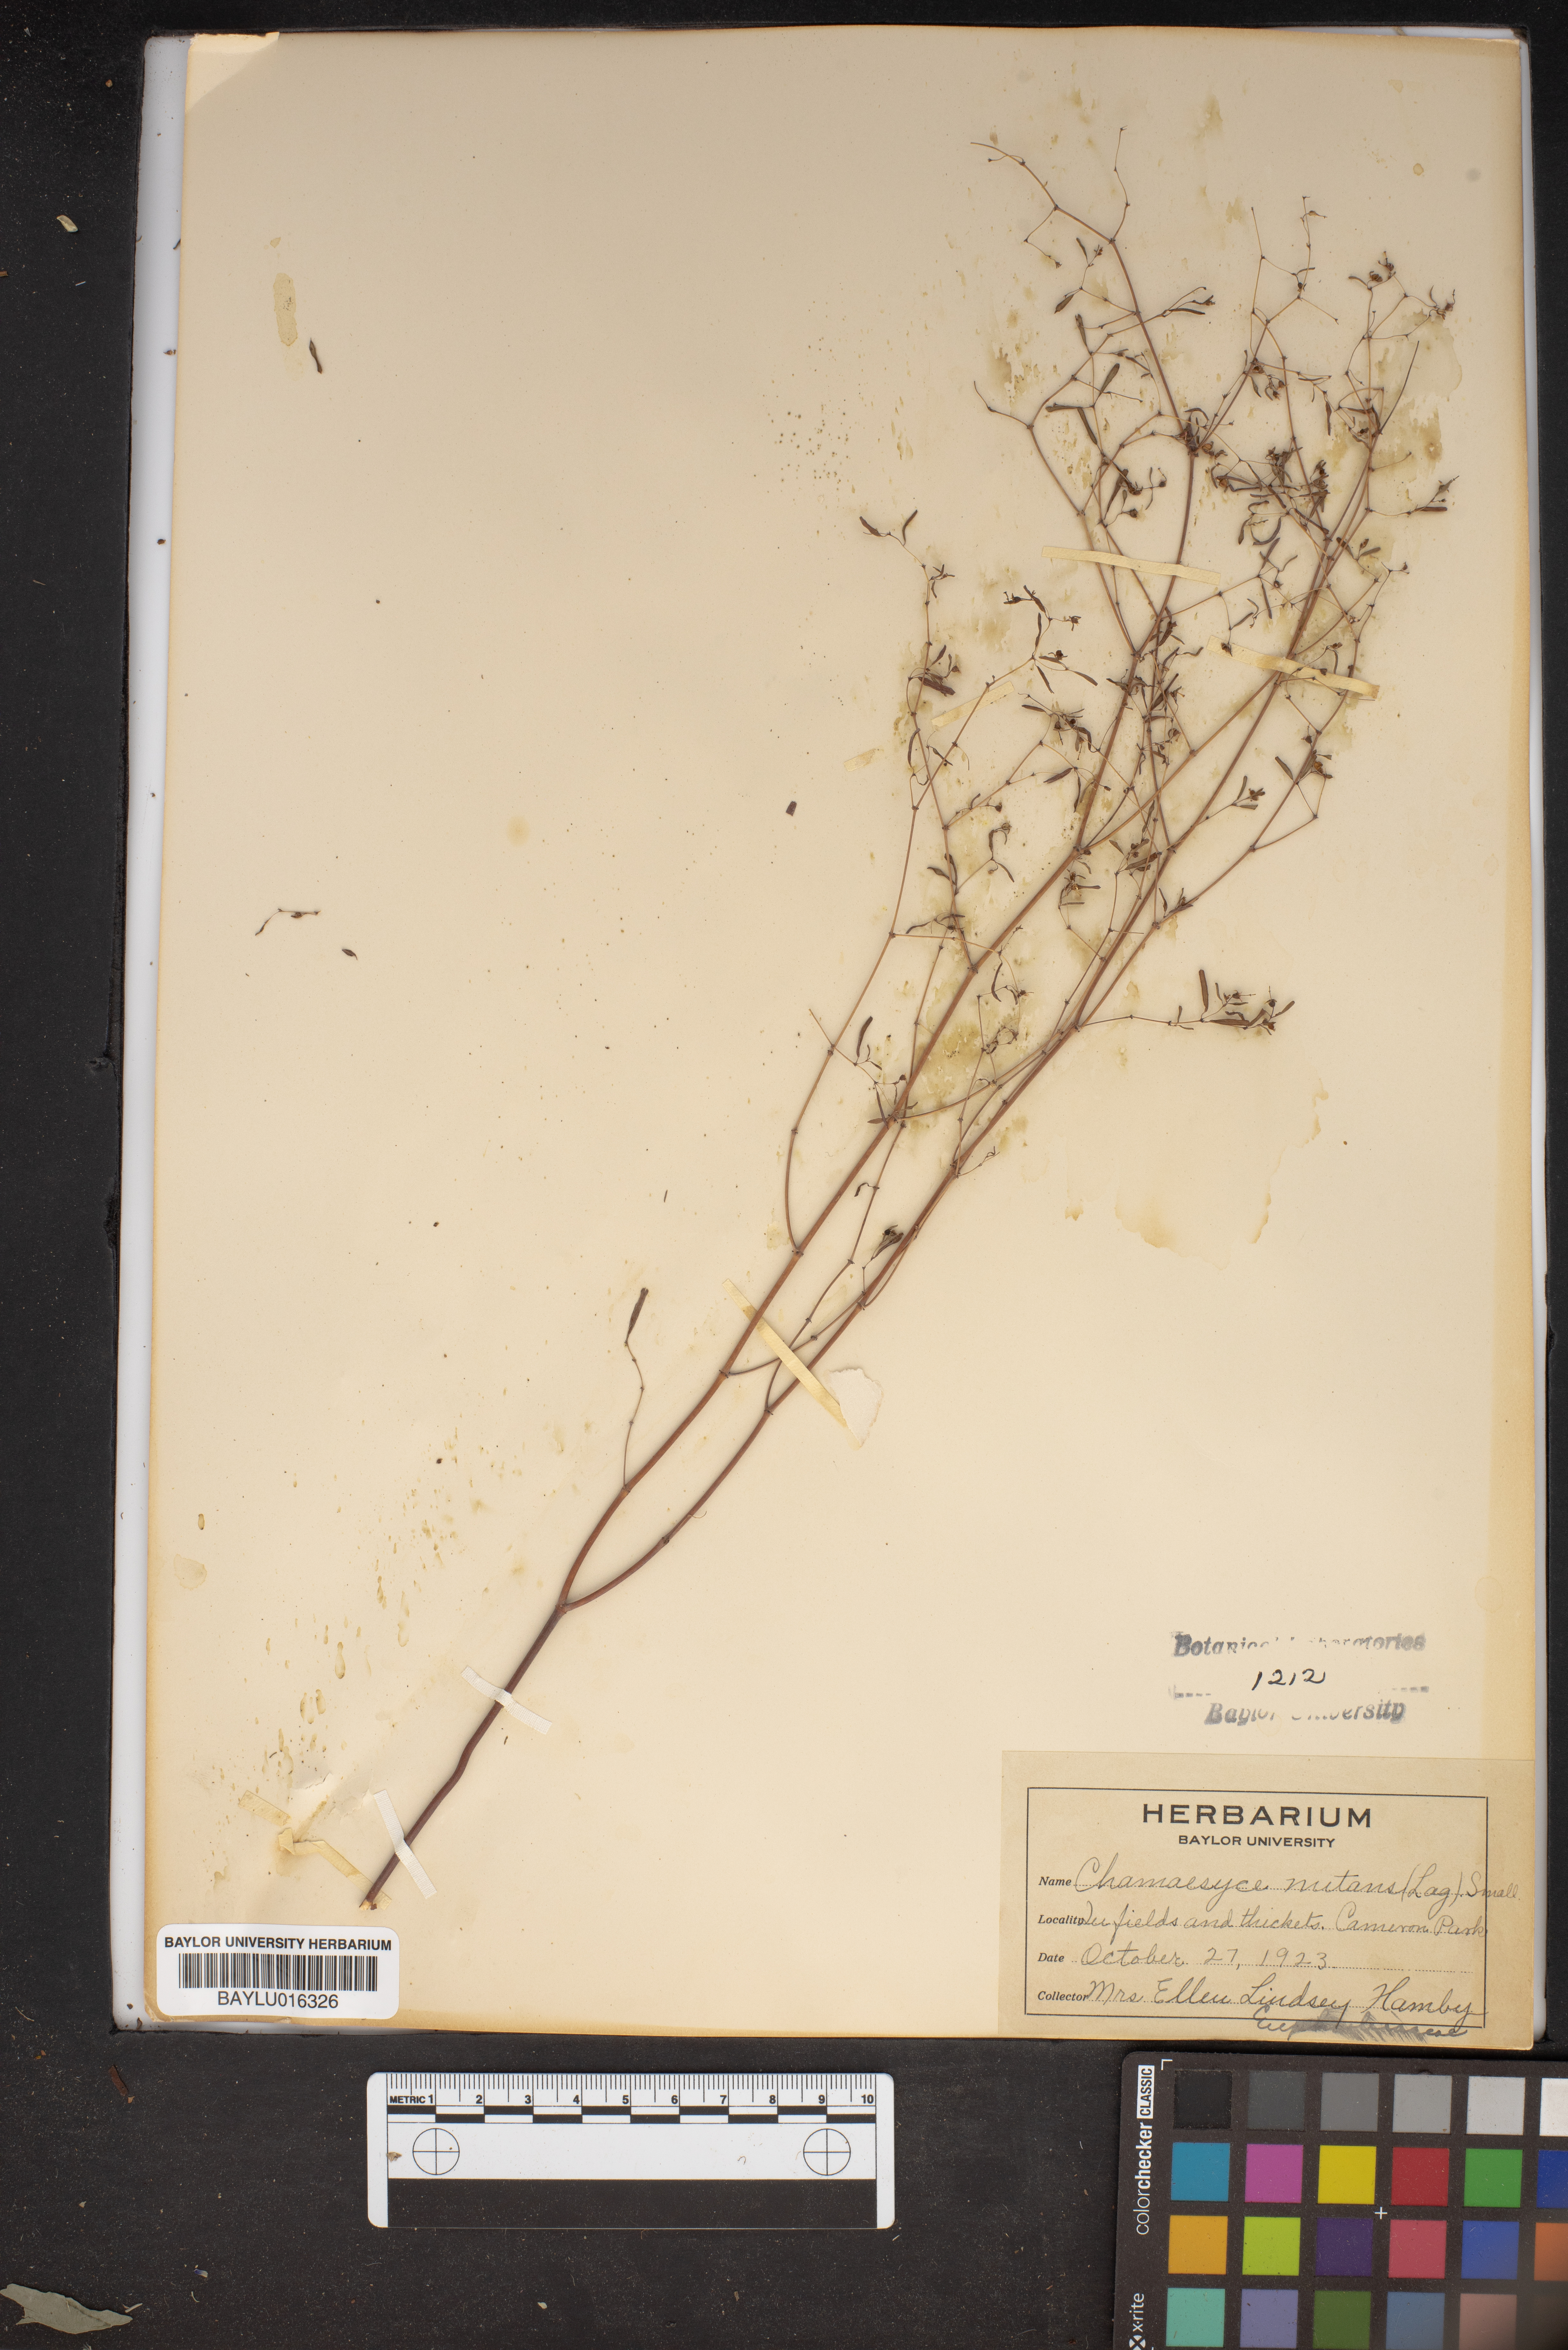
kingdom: Plantae
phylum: Tracheophyta
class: Magnoliopsida
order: Malpighiales
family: Euphorbiaceae
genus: Euphorbia
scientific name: Euphorbia nutans
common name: Eyebane
